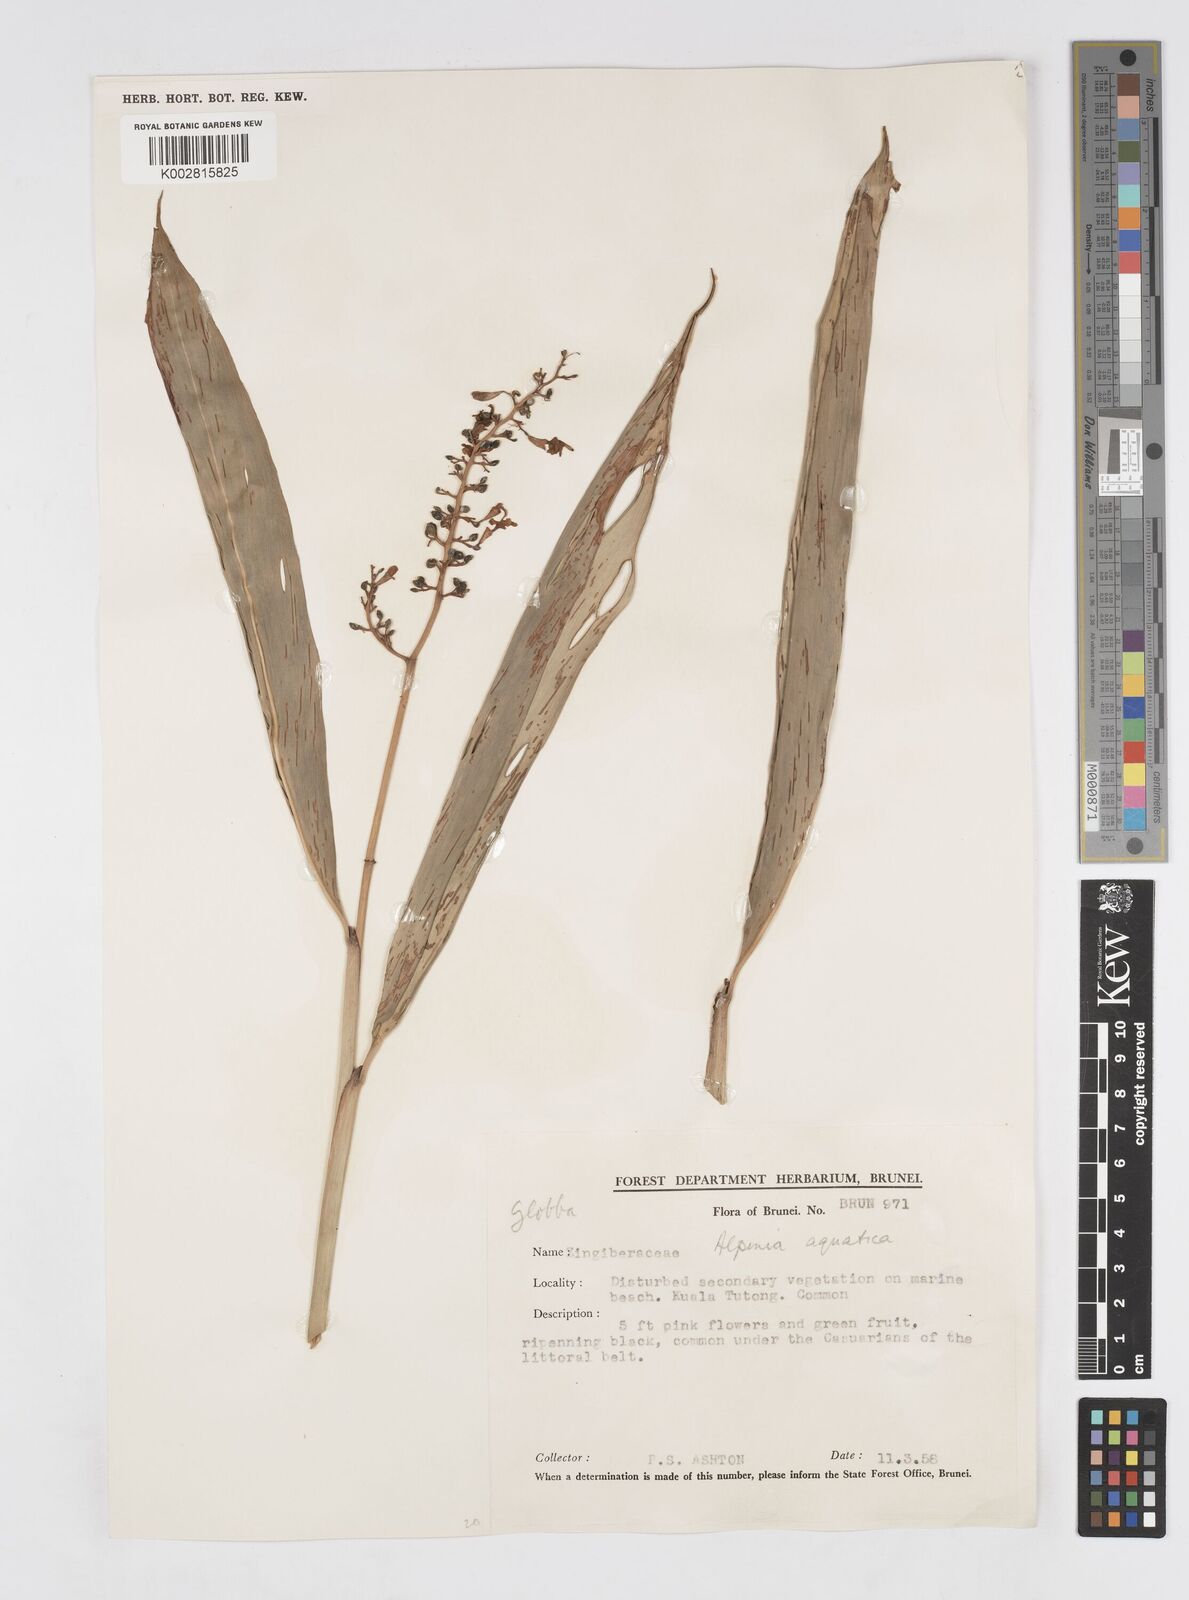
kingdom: Plantae
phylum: Tracheophyta
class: Liliopsida
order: Zingiberales
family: Zingiberaceae
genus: Alpinia
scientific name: Alpinia aquatica
